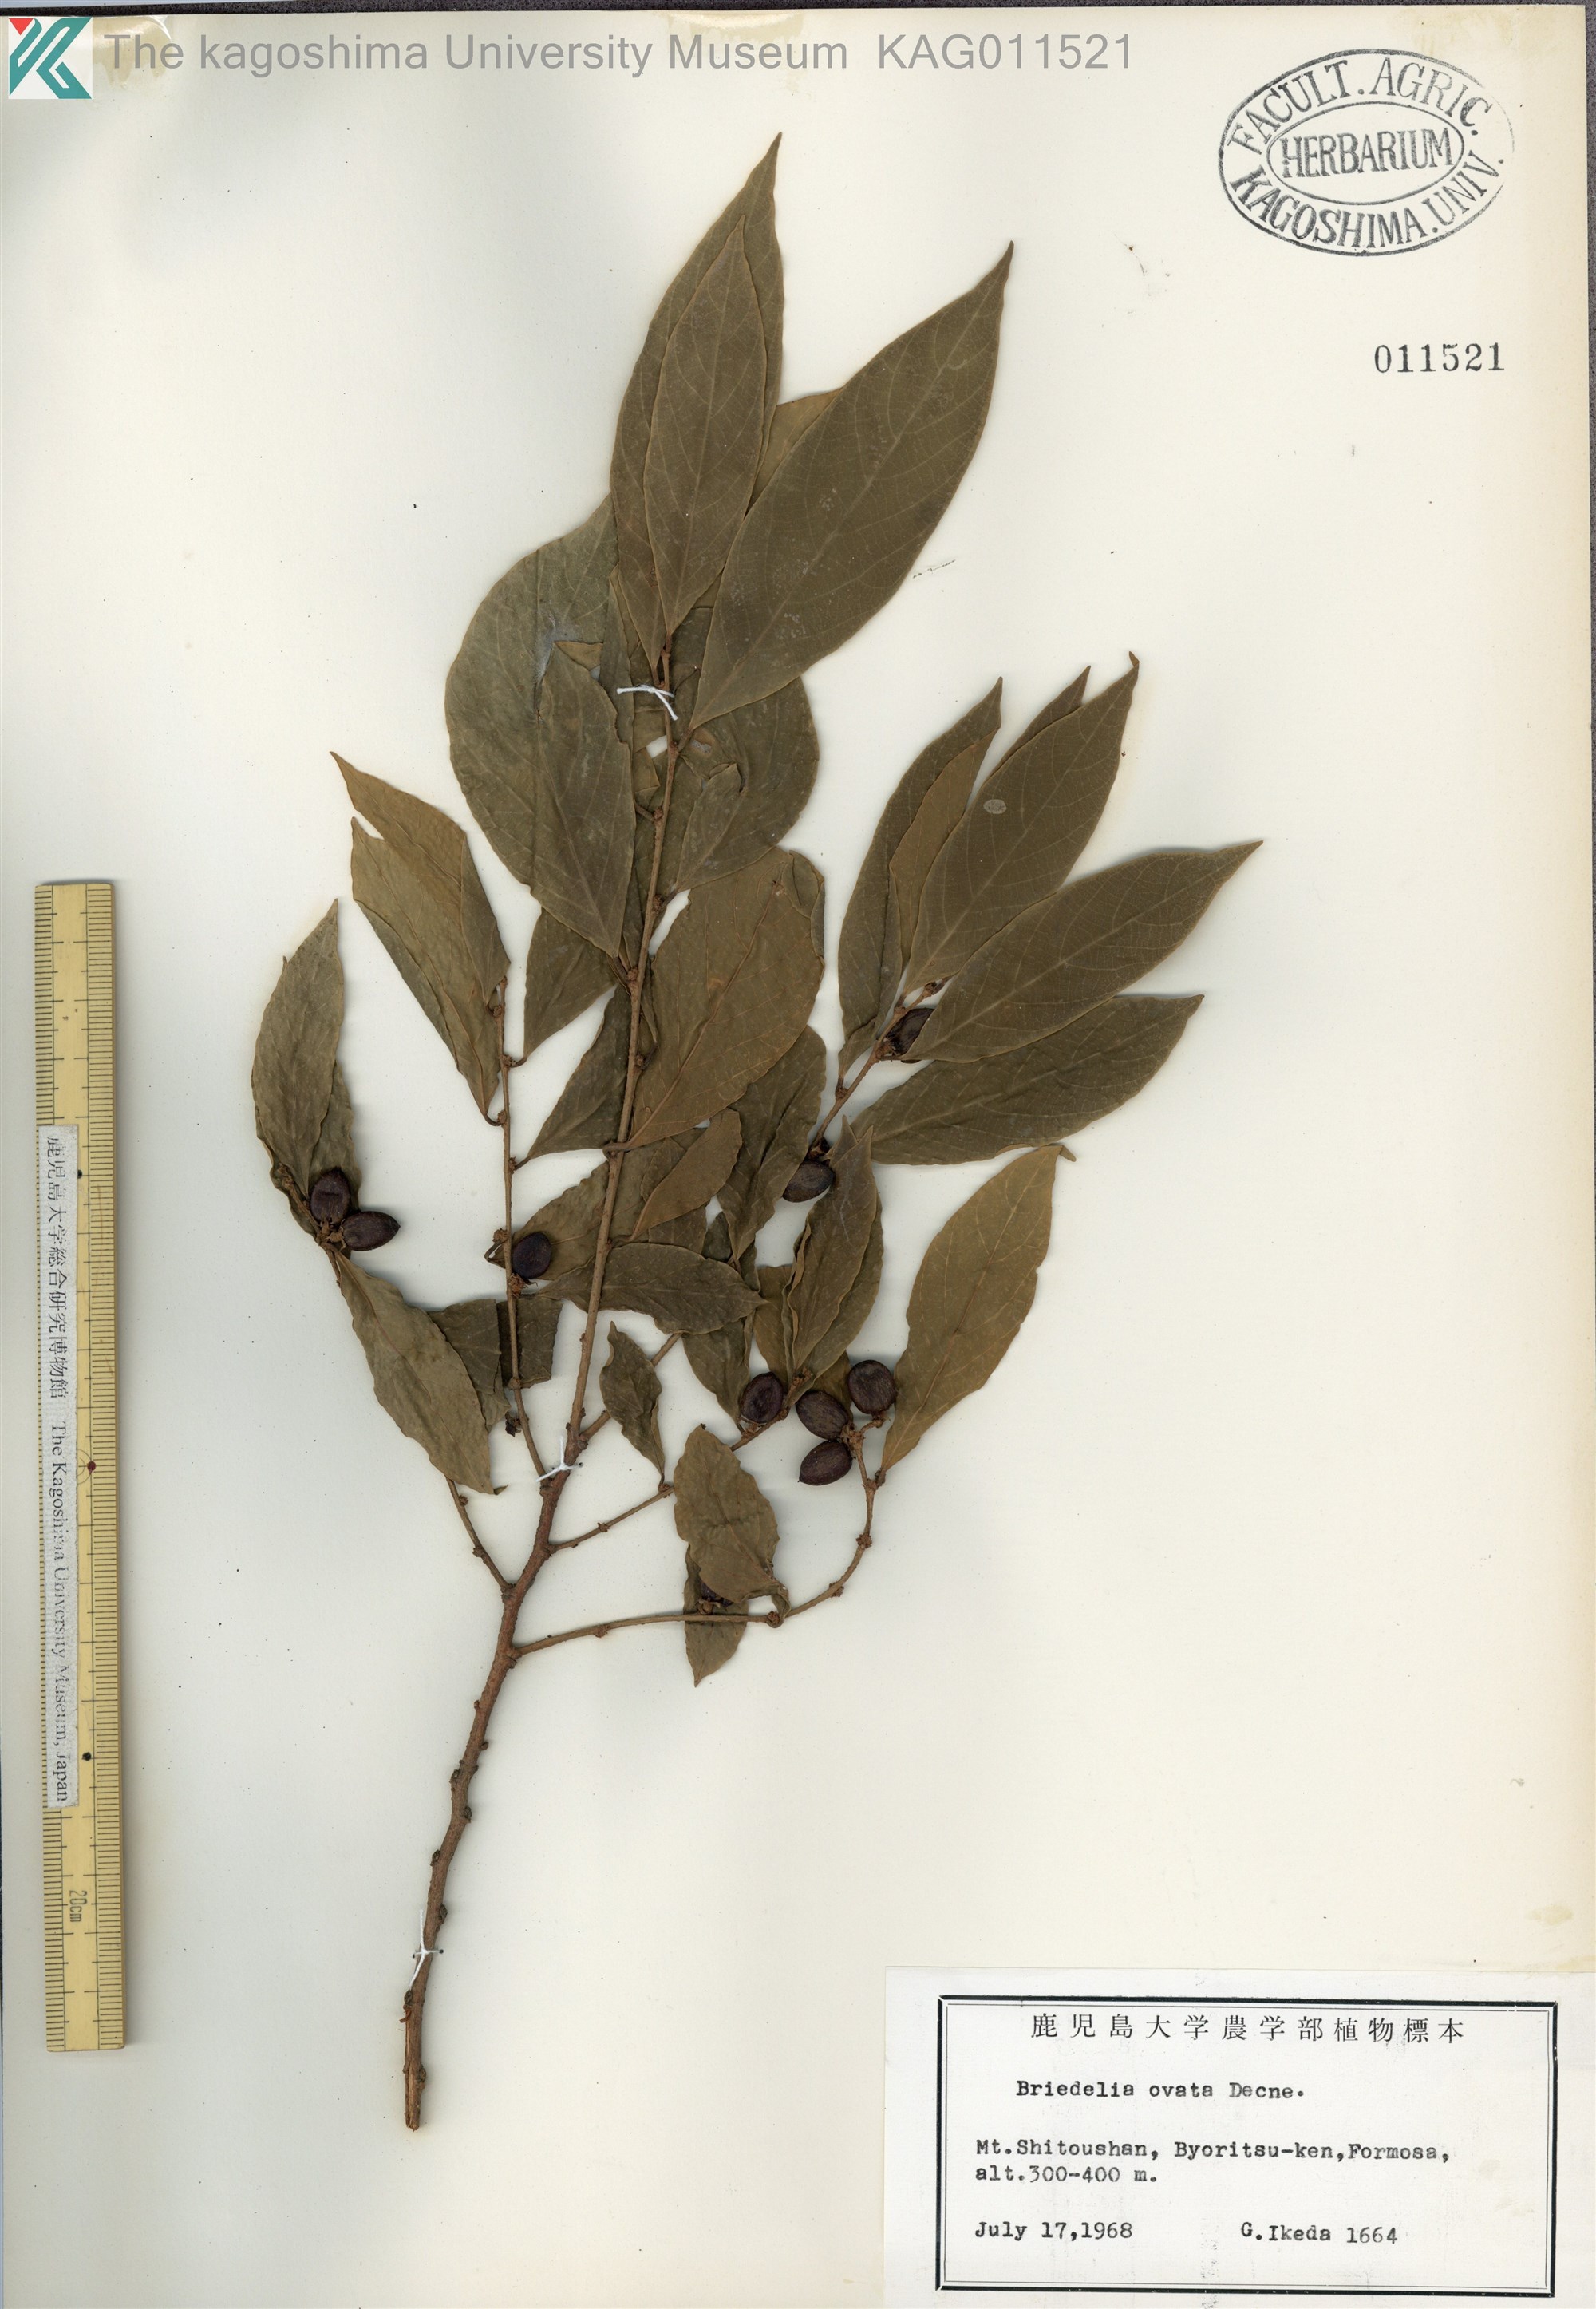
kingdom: Plantae
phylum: Tracheophyta
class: Magnoliopsida
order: Malpighiales
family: Phyllanthaceae
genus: Bridelia
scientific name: Bridelia balansae
